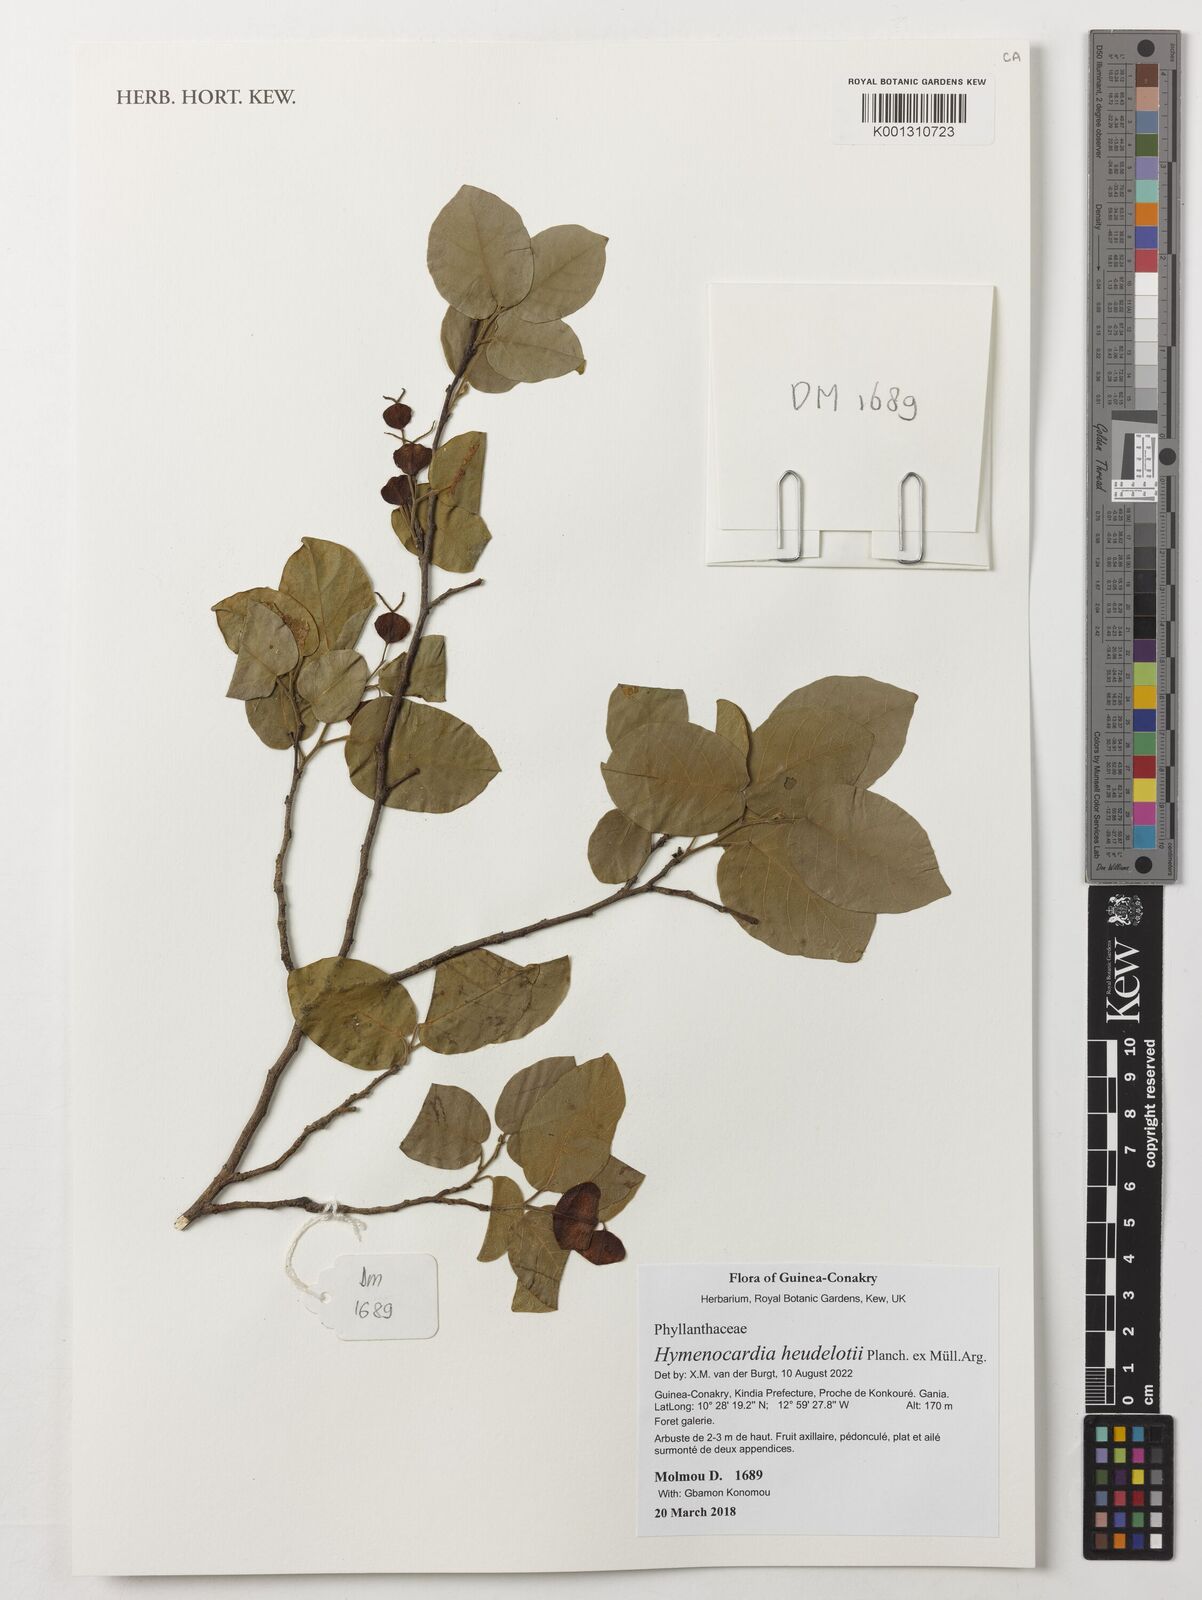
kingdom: Plantae
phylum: Tracheophyta
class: Magnoliopsida
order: Malpighiales
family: Phyllanthaceae
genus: Hymenocardia
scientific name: Hymenocardia heudelotii
